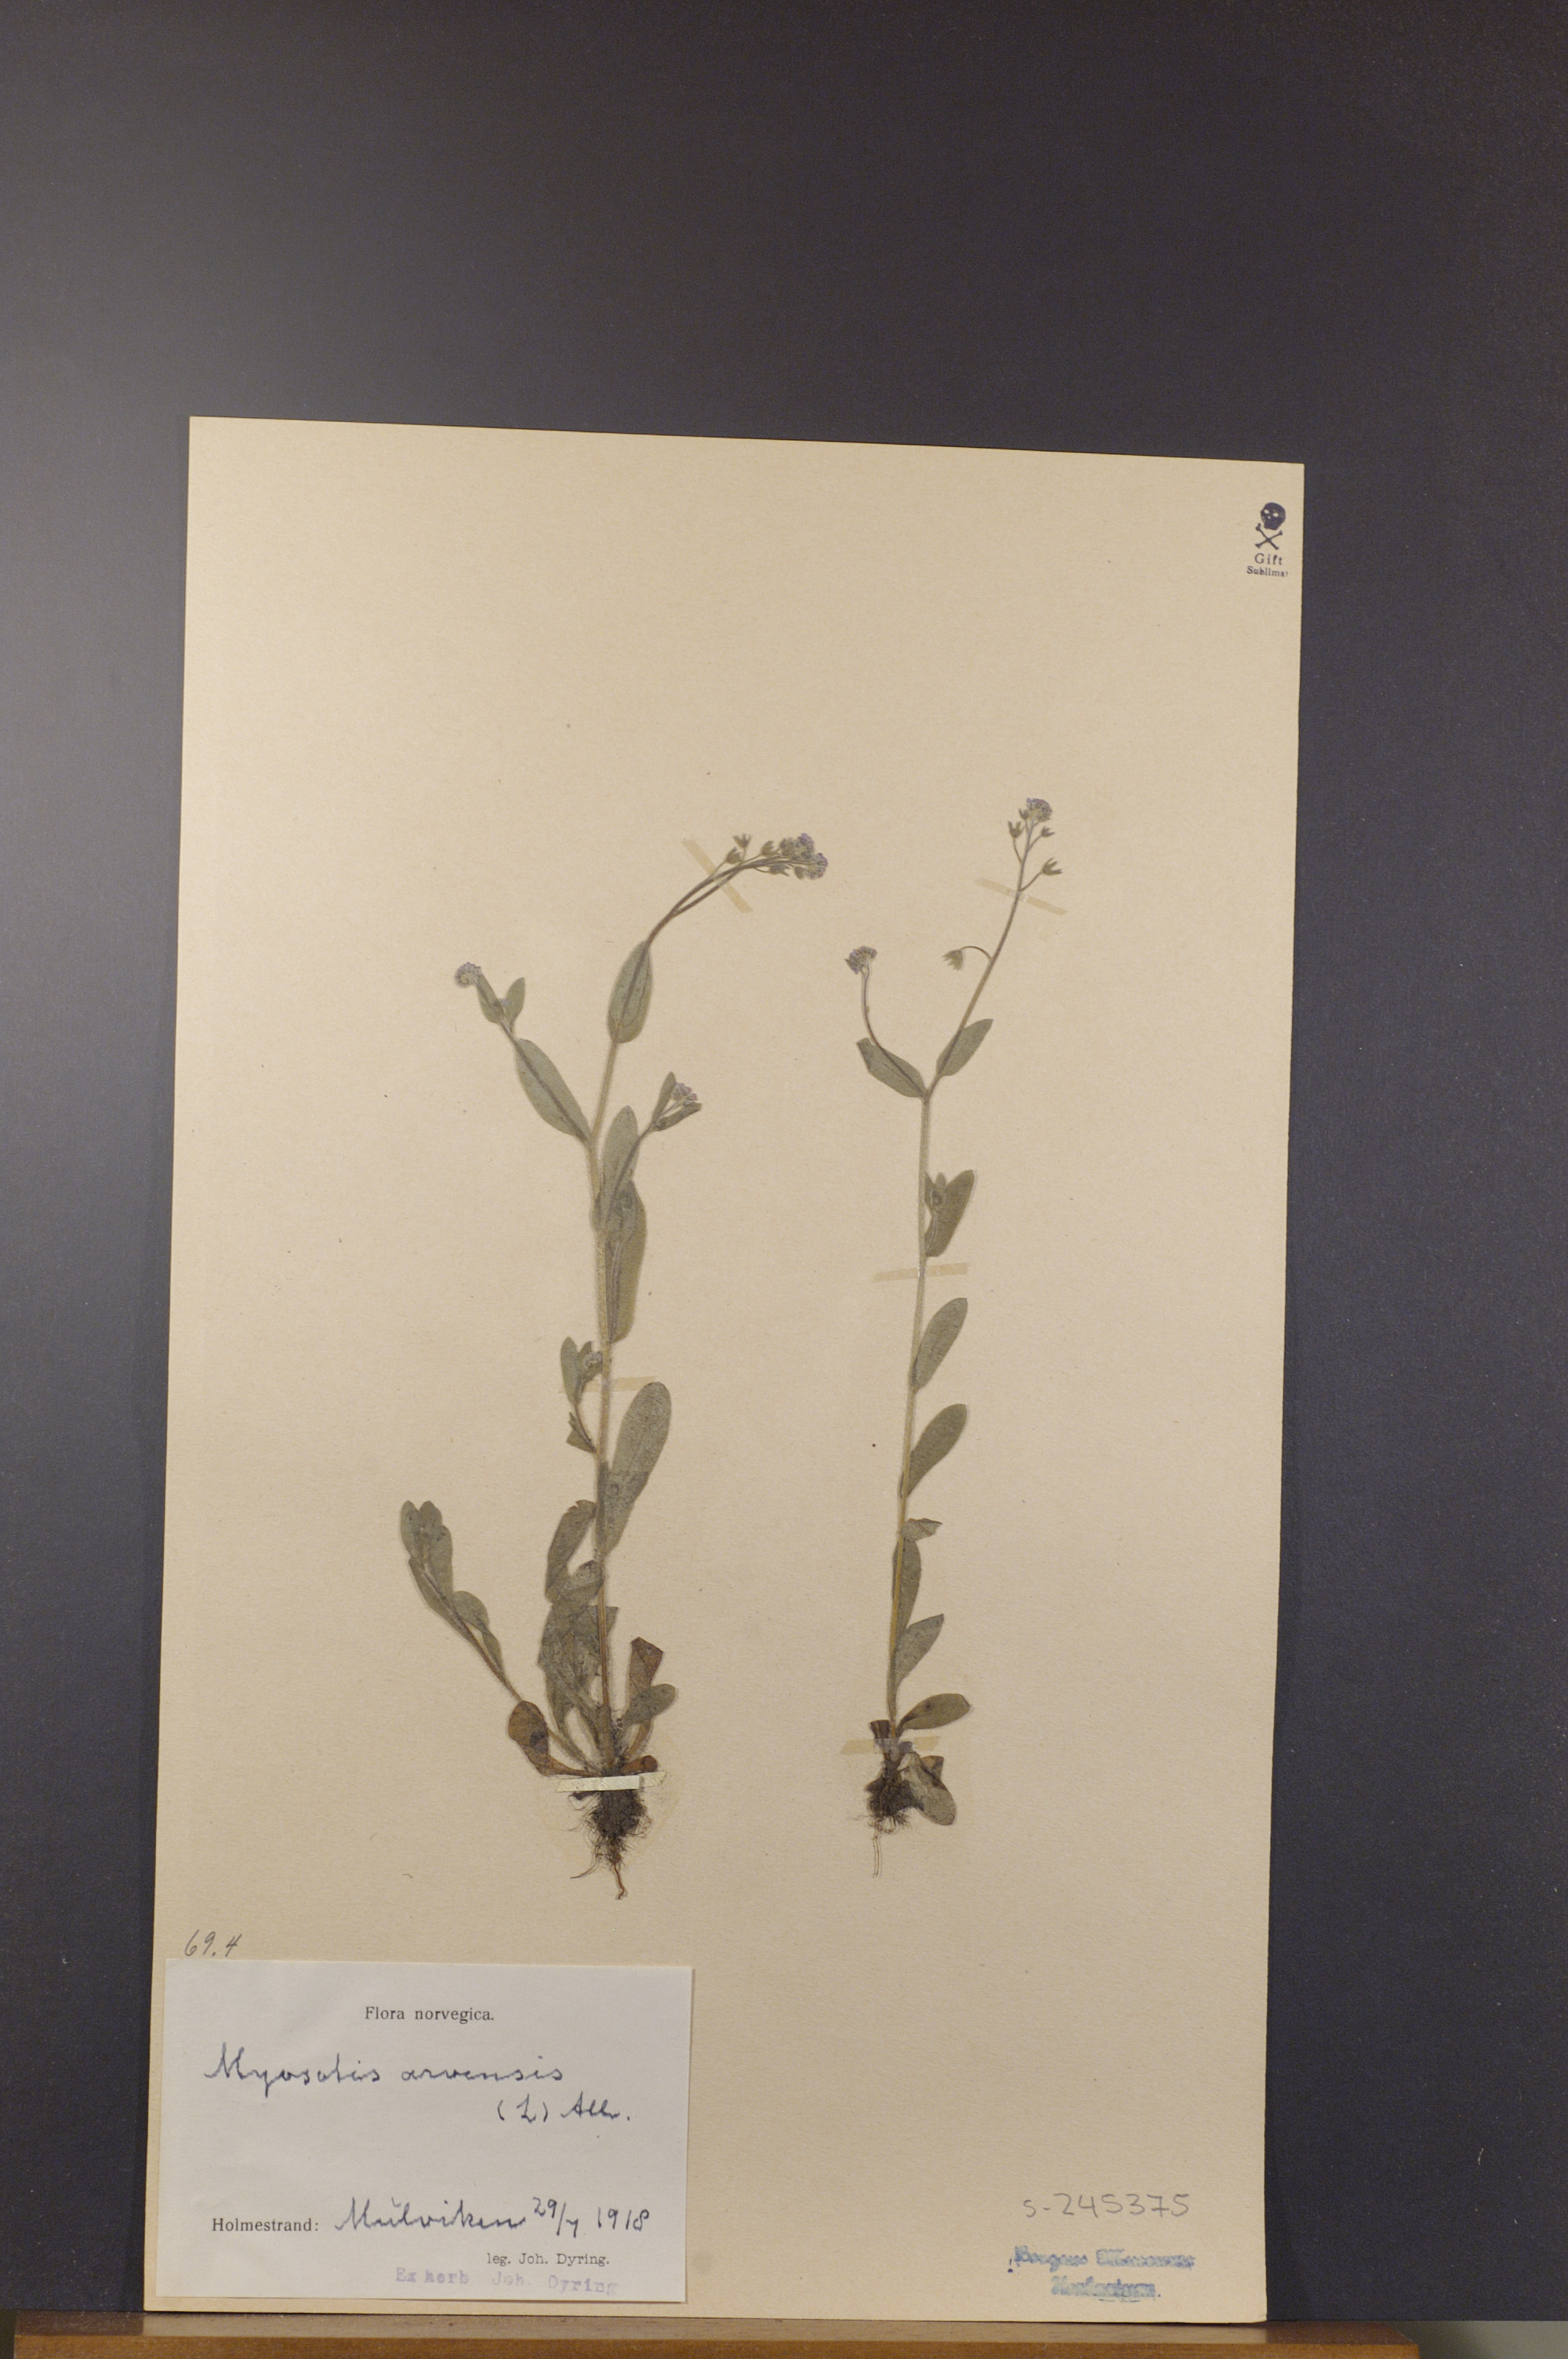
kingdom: Plantae
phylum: Tracheophyta
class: Magnoliopsida
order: Boraginales
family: Boraginaceae
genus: Myosotis
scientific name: Myosotis arvensis
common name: Field forget-me-not
